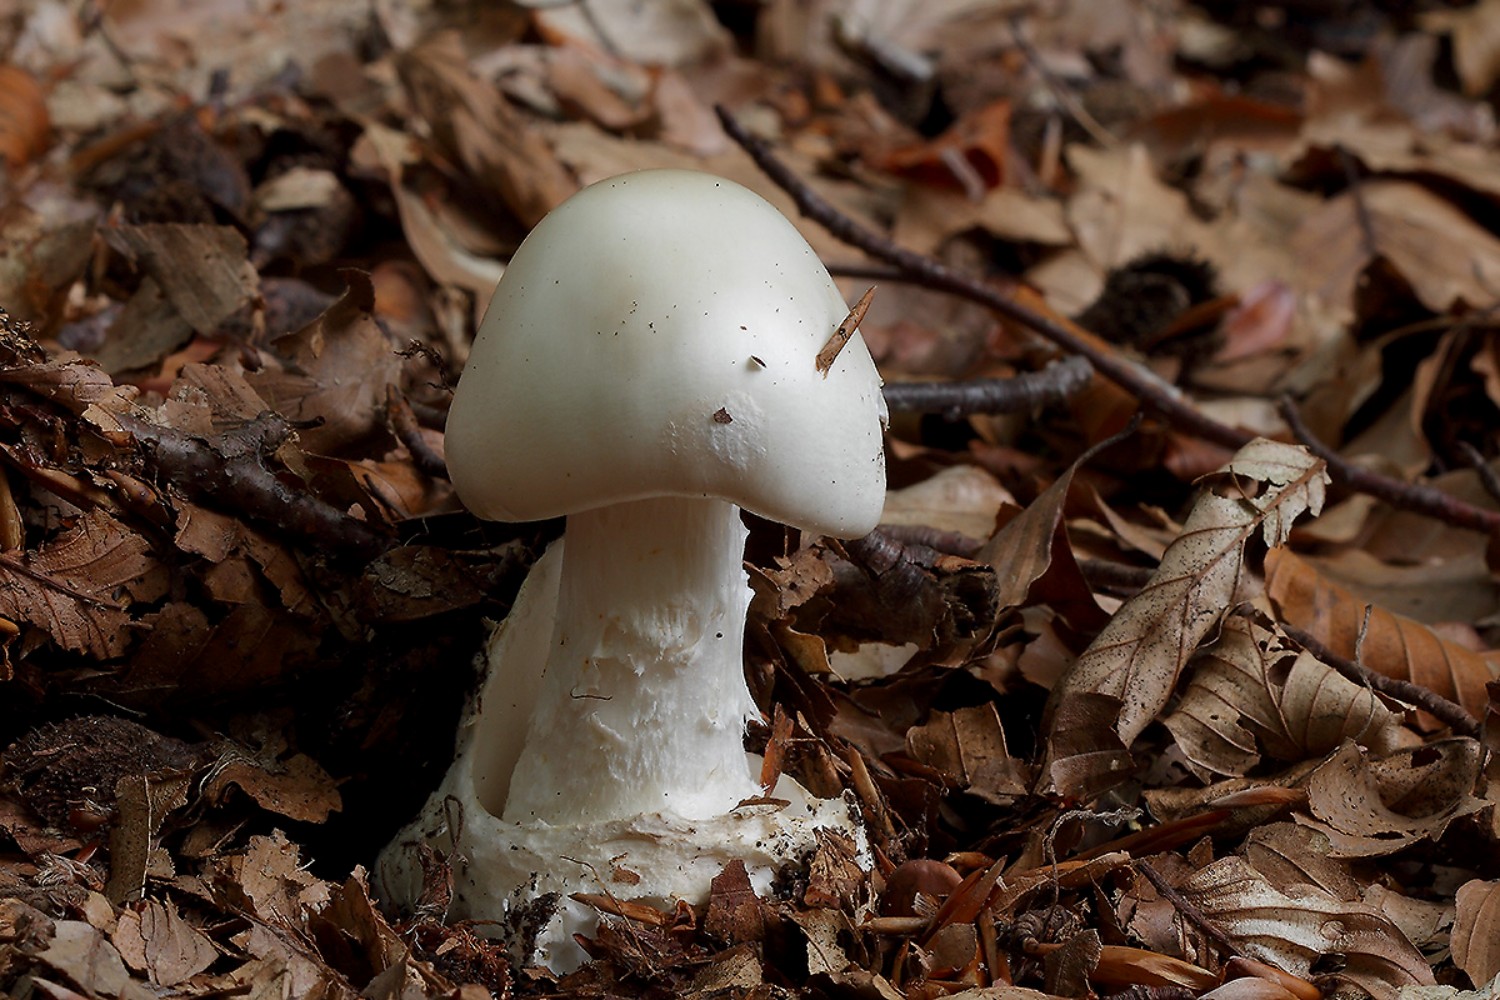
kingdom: Fungi
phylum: Basidiomycota
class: Agaricomycetes
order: Agaricales
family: Amanitaceae
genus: Amanita
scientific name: Amanita virosa
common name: snehvid fluesvamp
